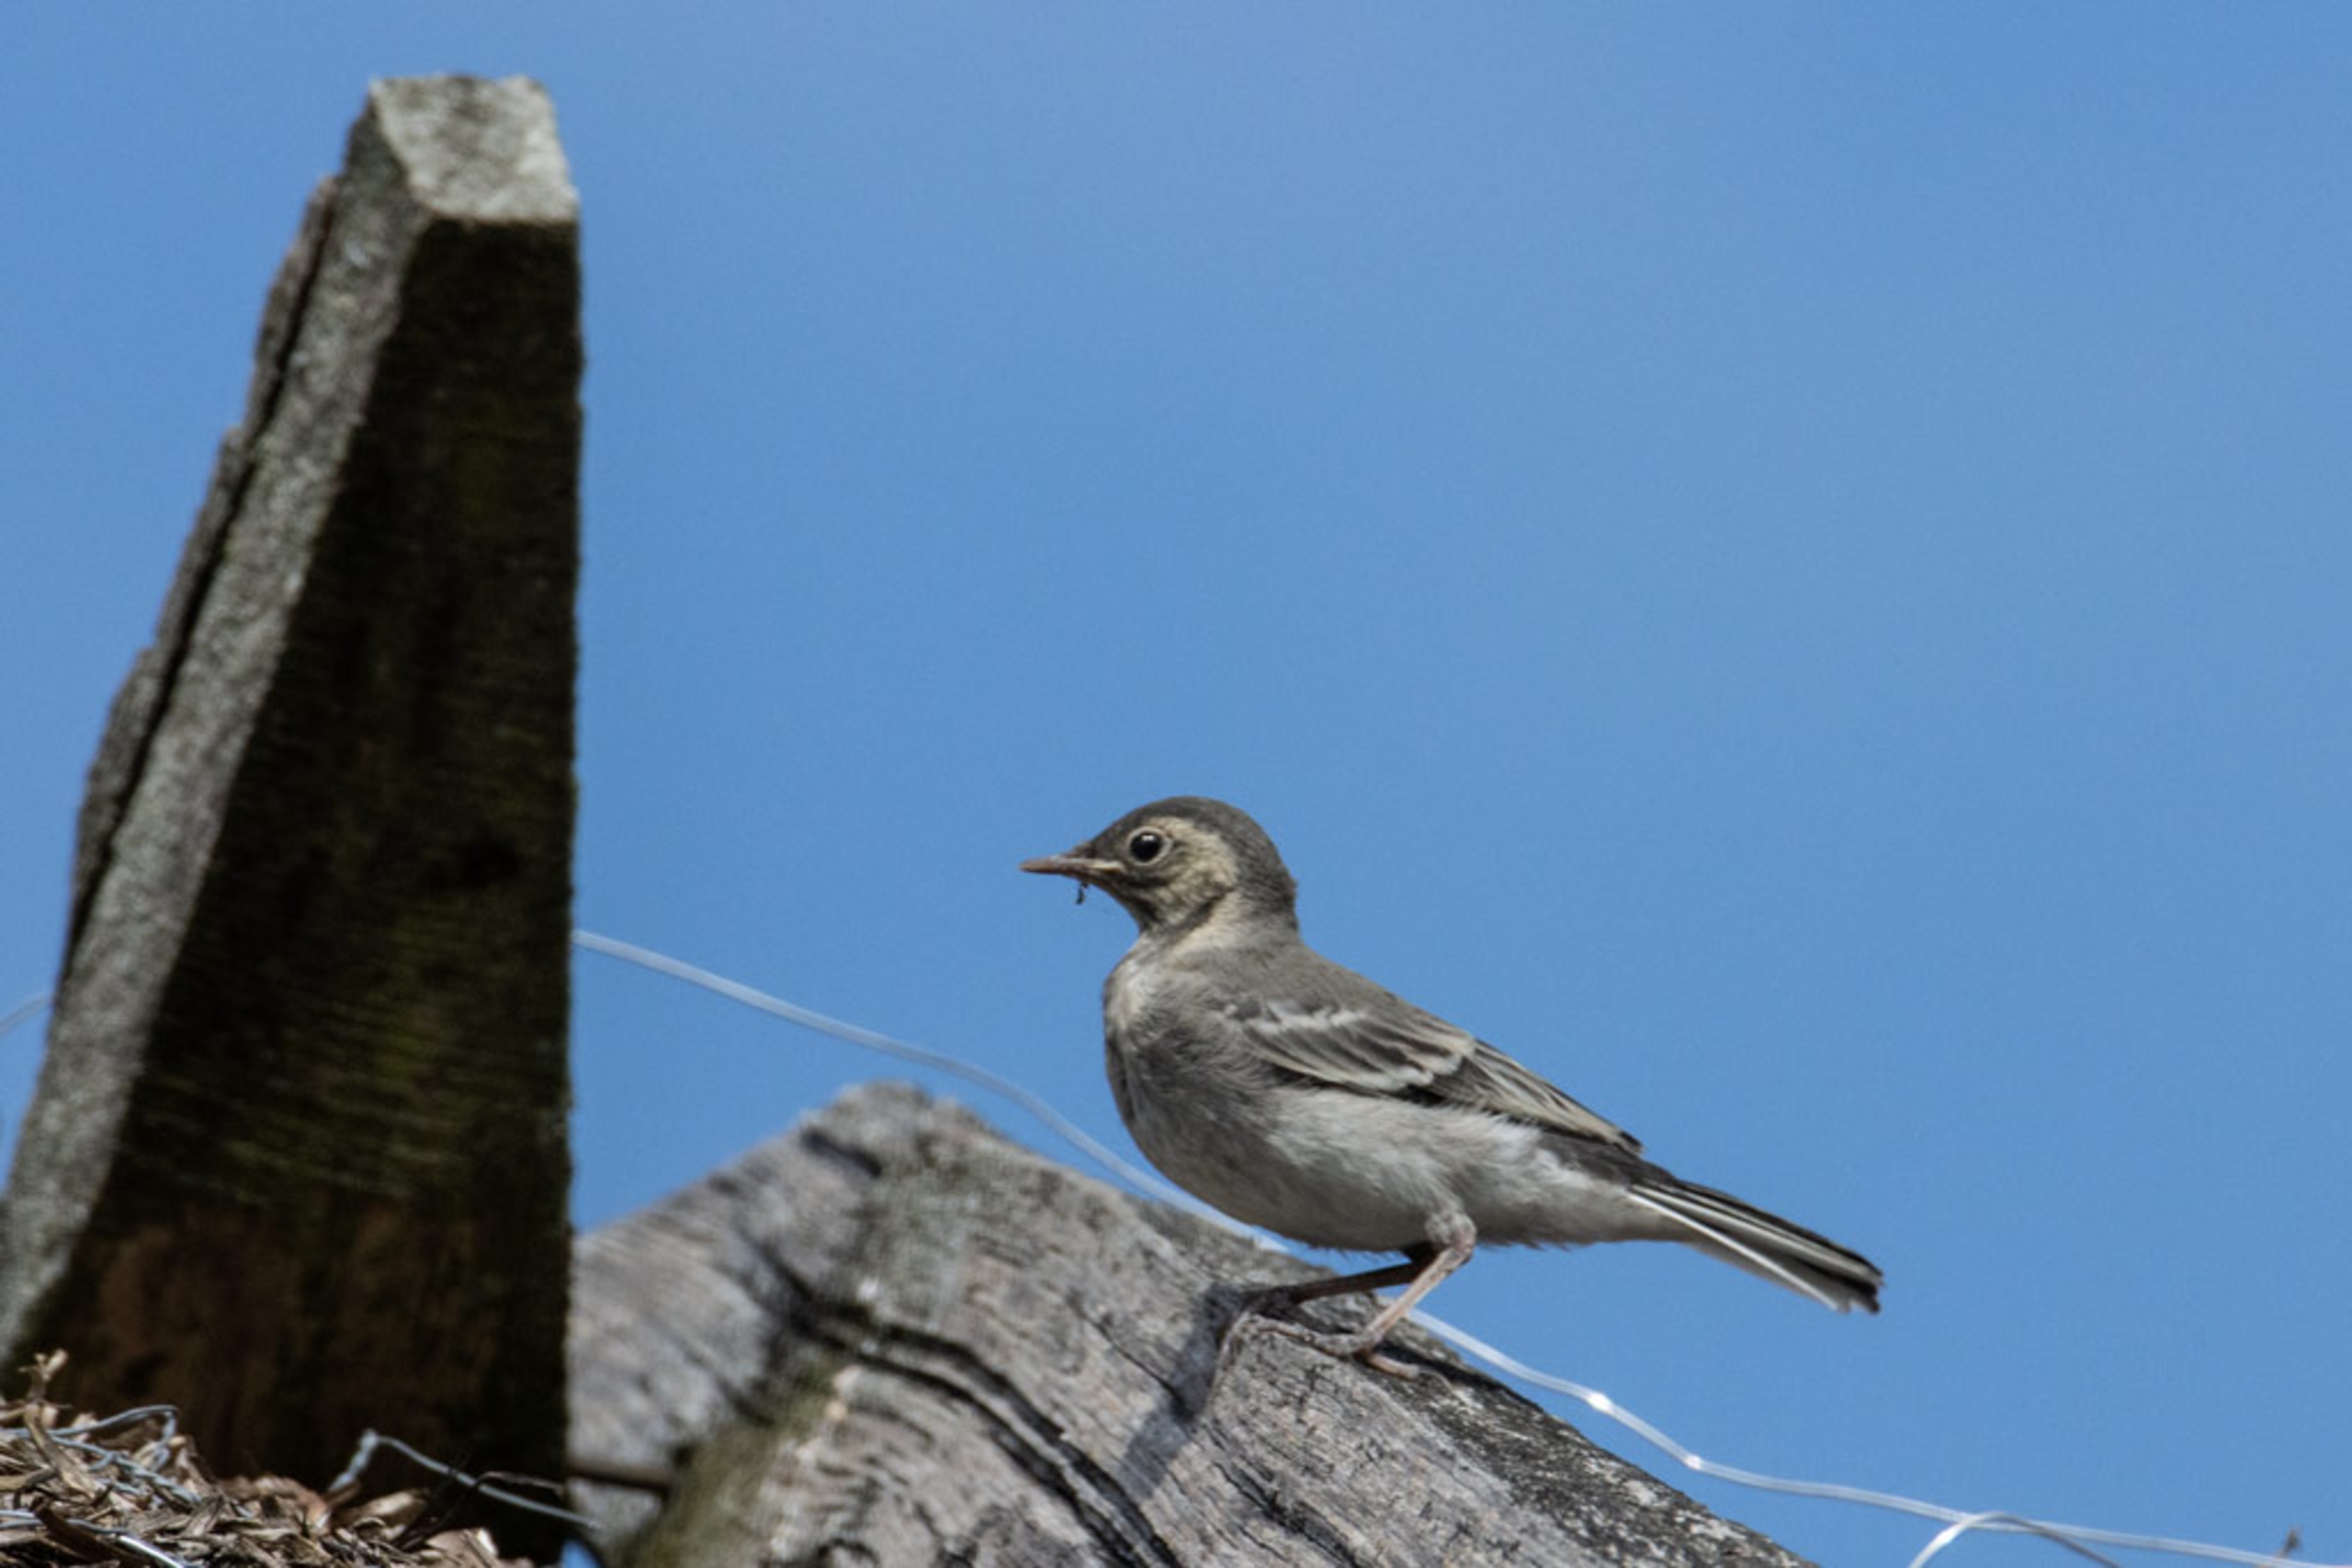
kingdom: Animalia
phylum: Chordata
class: Aves
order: Passeriformes
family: Motacillidae
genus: Motacilla
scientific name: Motacilla alba
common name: Hvid vipstjert
